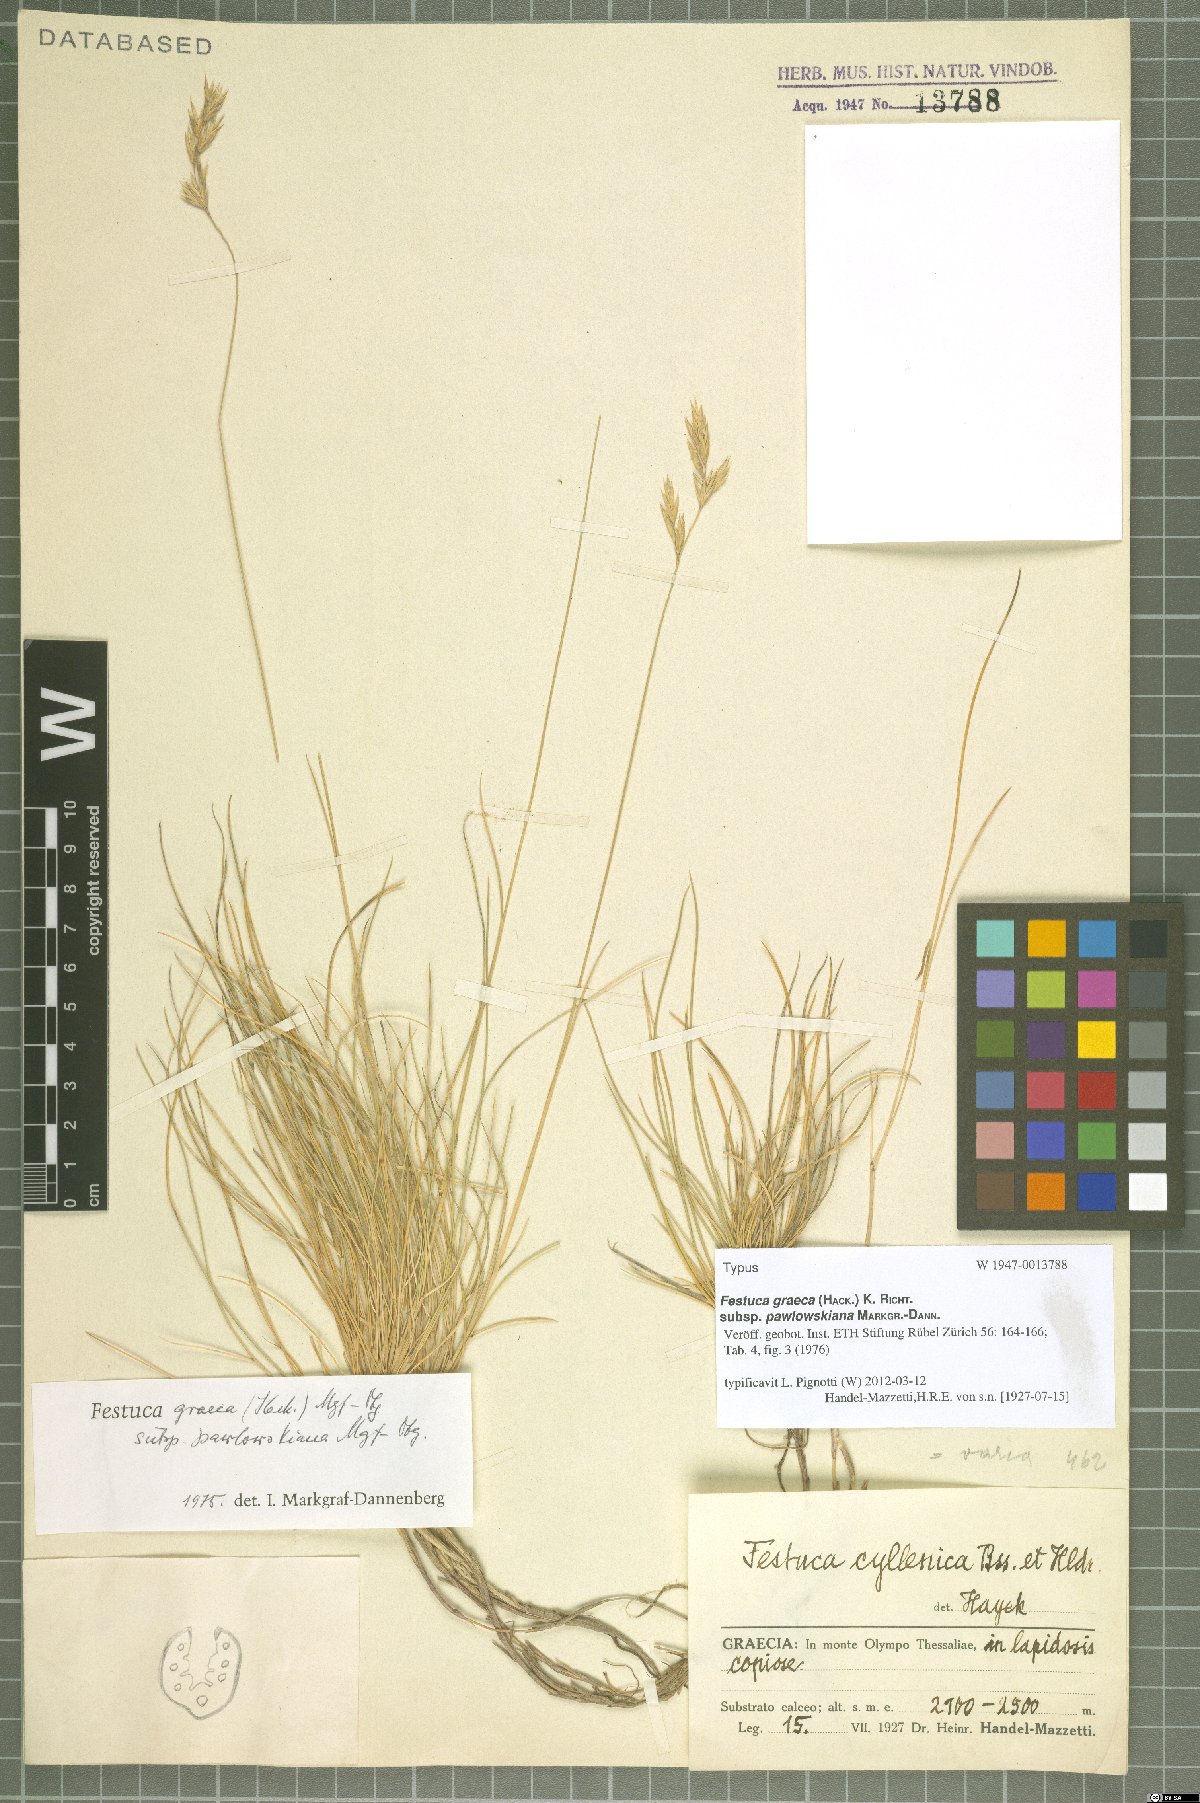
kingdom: Plantae
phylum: Tracheophyta
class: Liliopsida
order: Poales
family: Poaceae
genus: Festuca
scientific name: Festuca graeca
